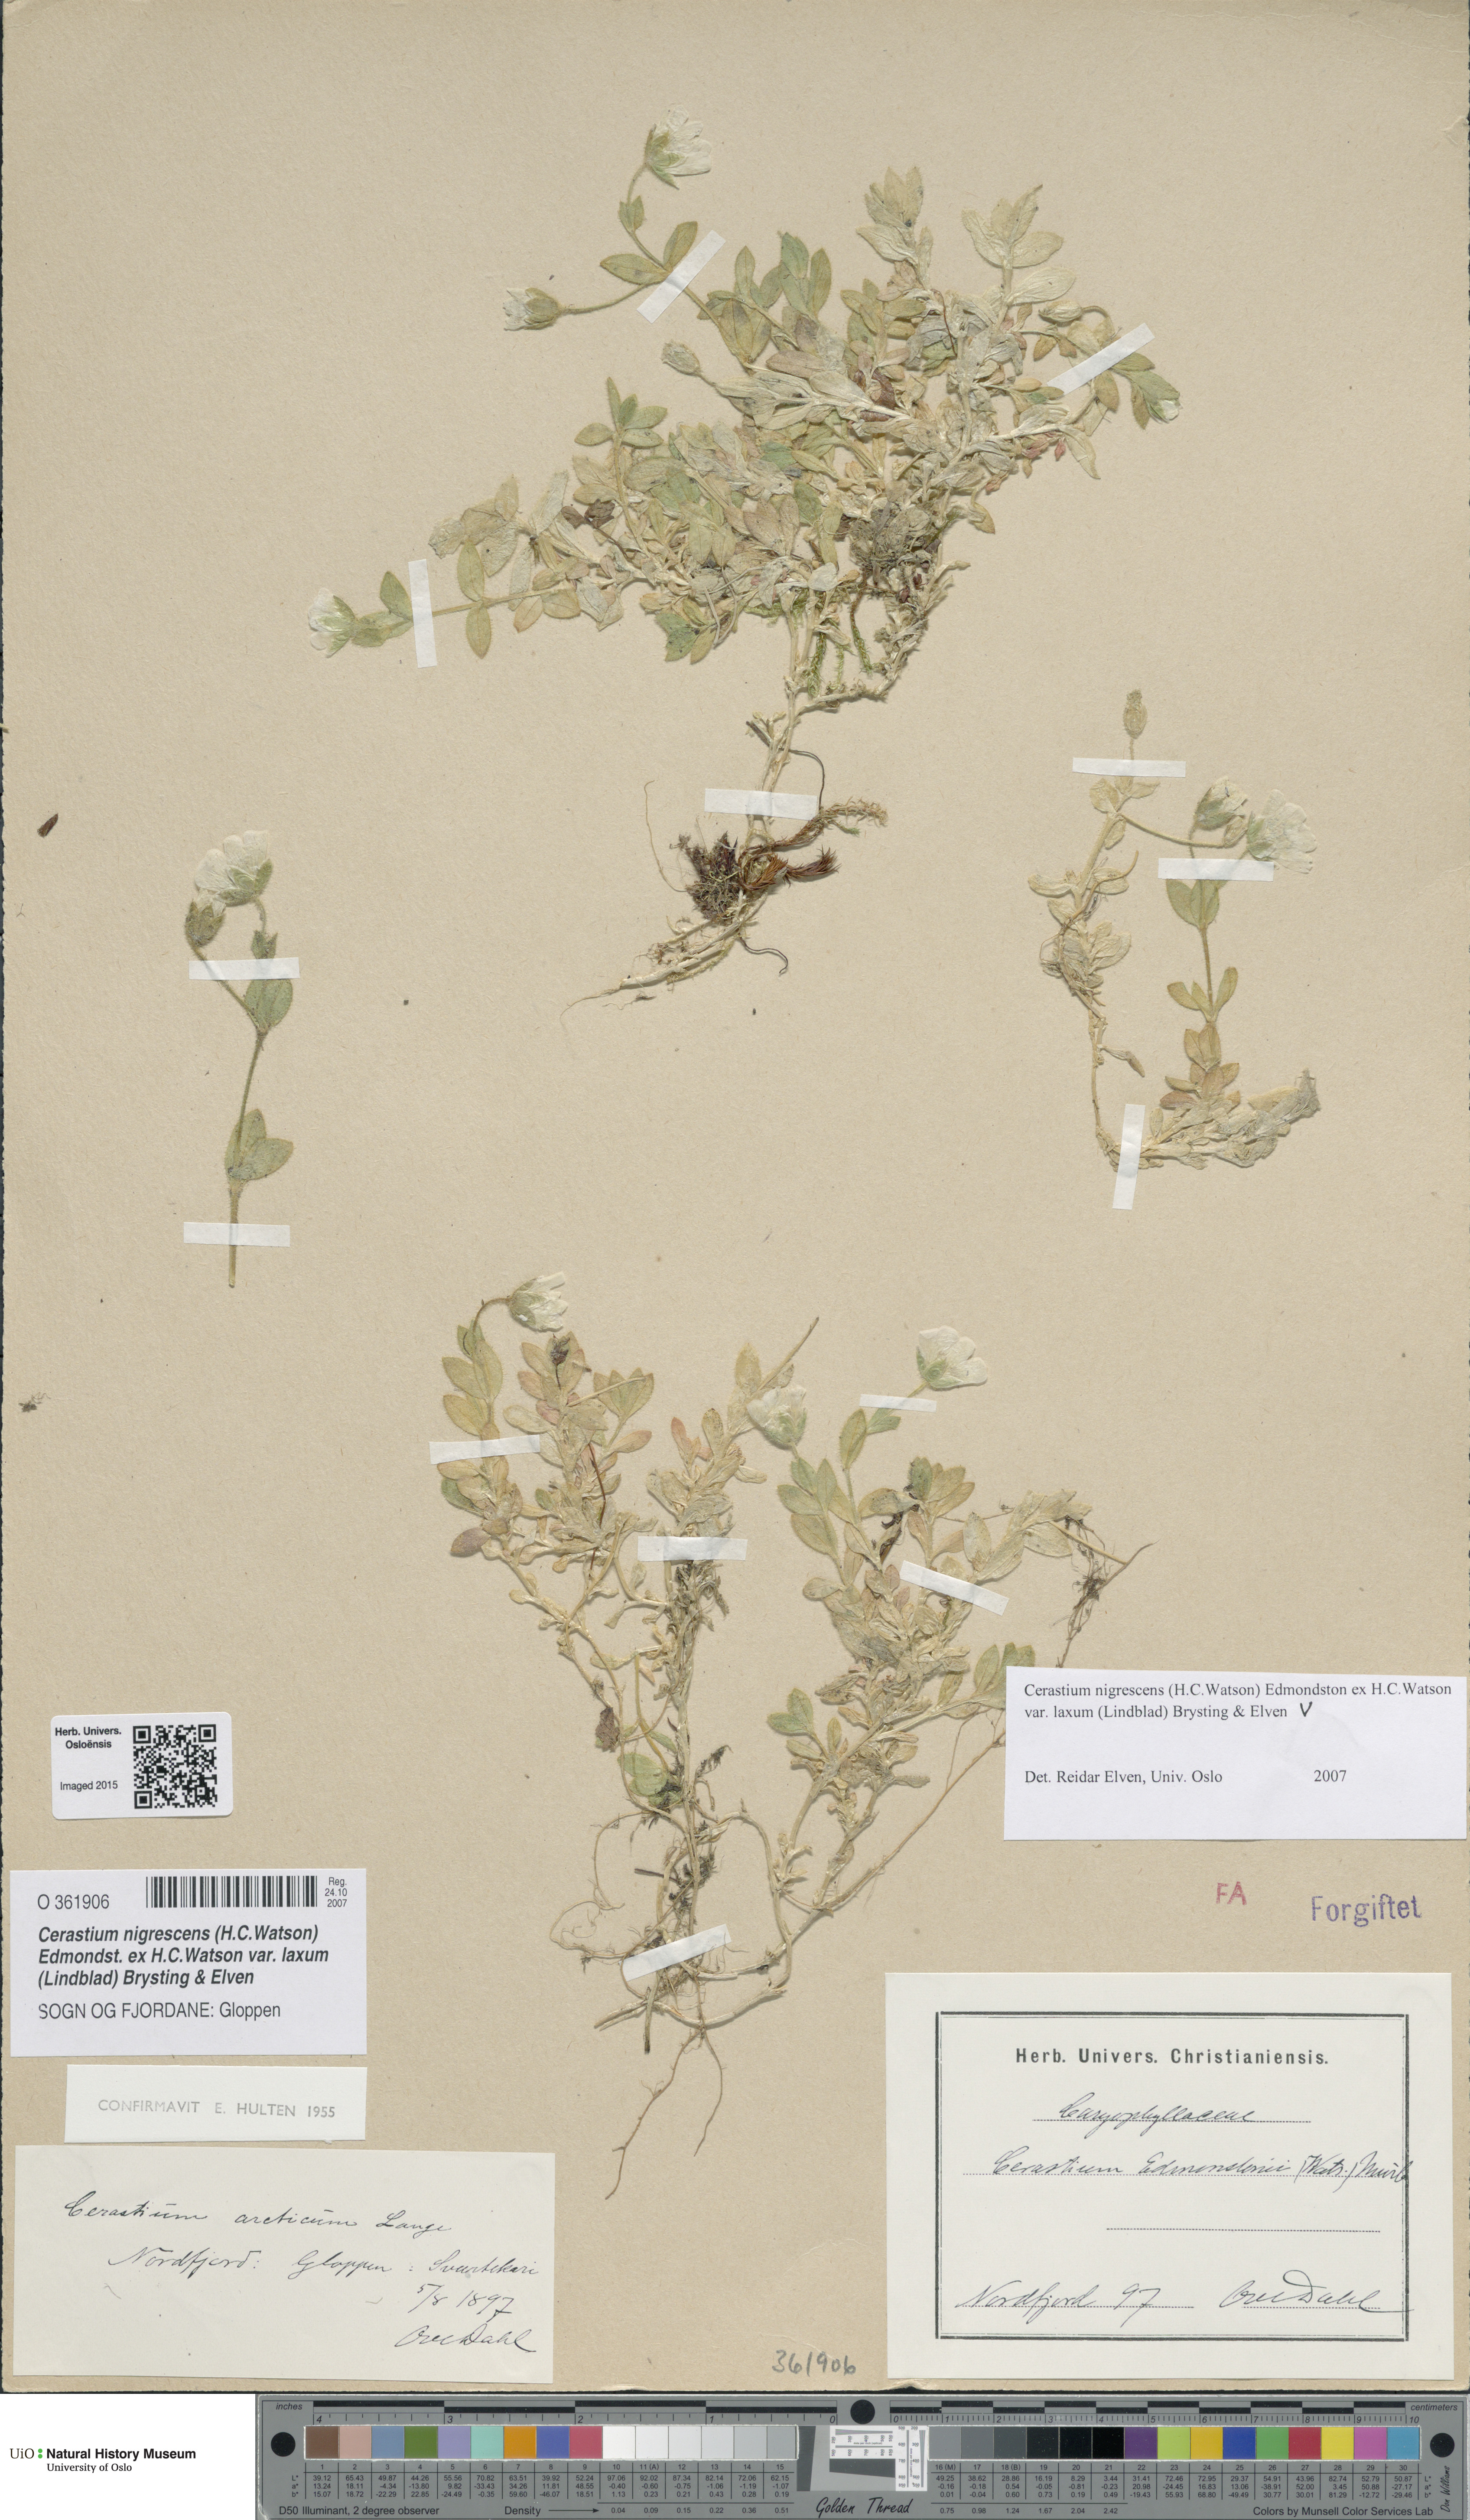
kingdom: Plantae
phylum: Tracheophyta
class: Magnoliopsida
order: Caryophyllales
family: Caryophyllaceae
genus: Cerastium
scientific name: Cerastium nigrescens
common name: Shetland mouse-ear
